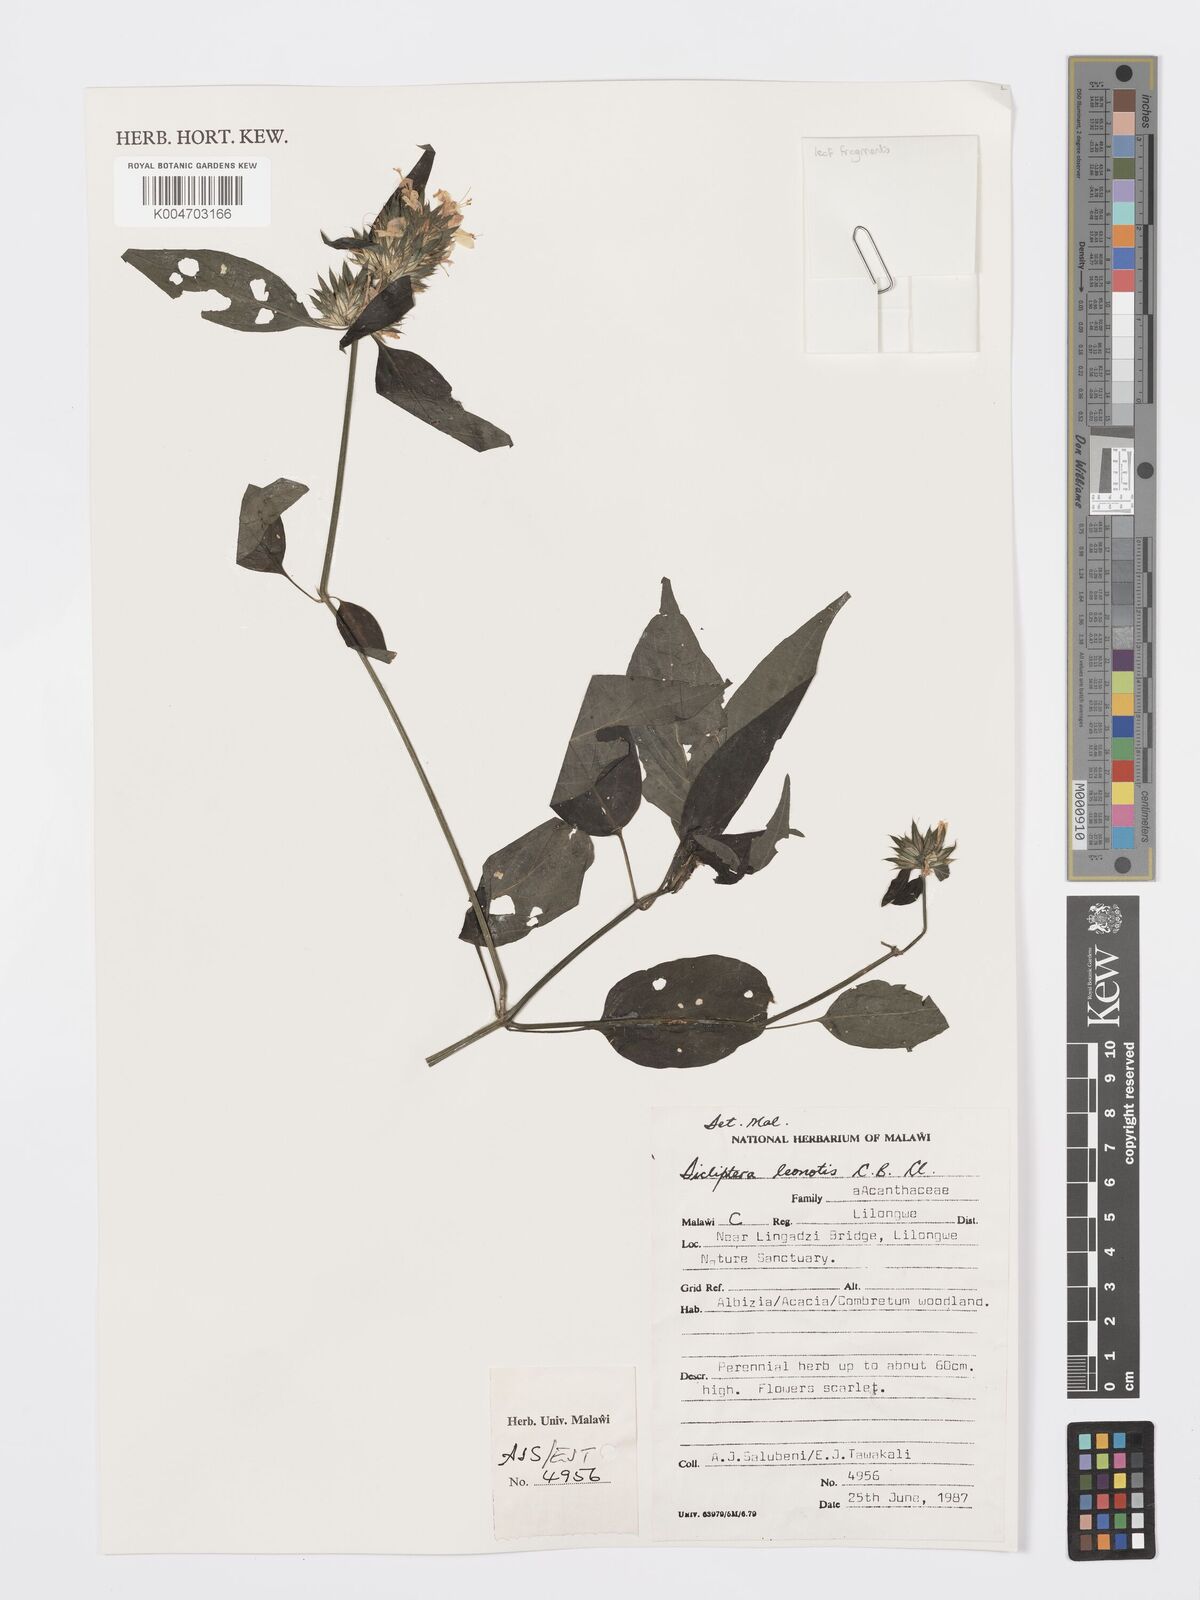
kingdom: Plantae
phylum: Tracheophyta
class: Magnoliopsida
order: Lamiales
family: Acanthaceae
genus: Dicliptera
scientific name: Dicliptera clinopodia
